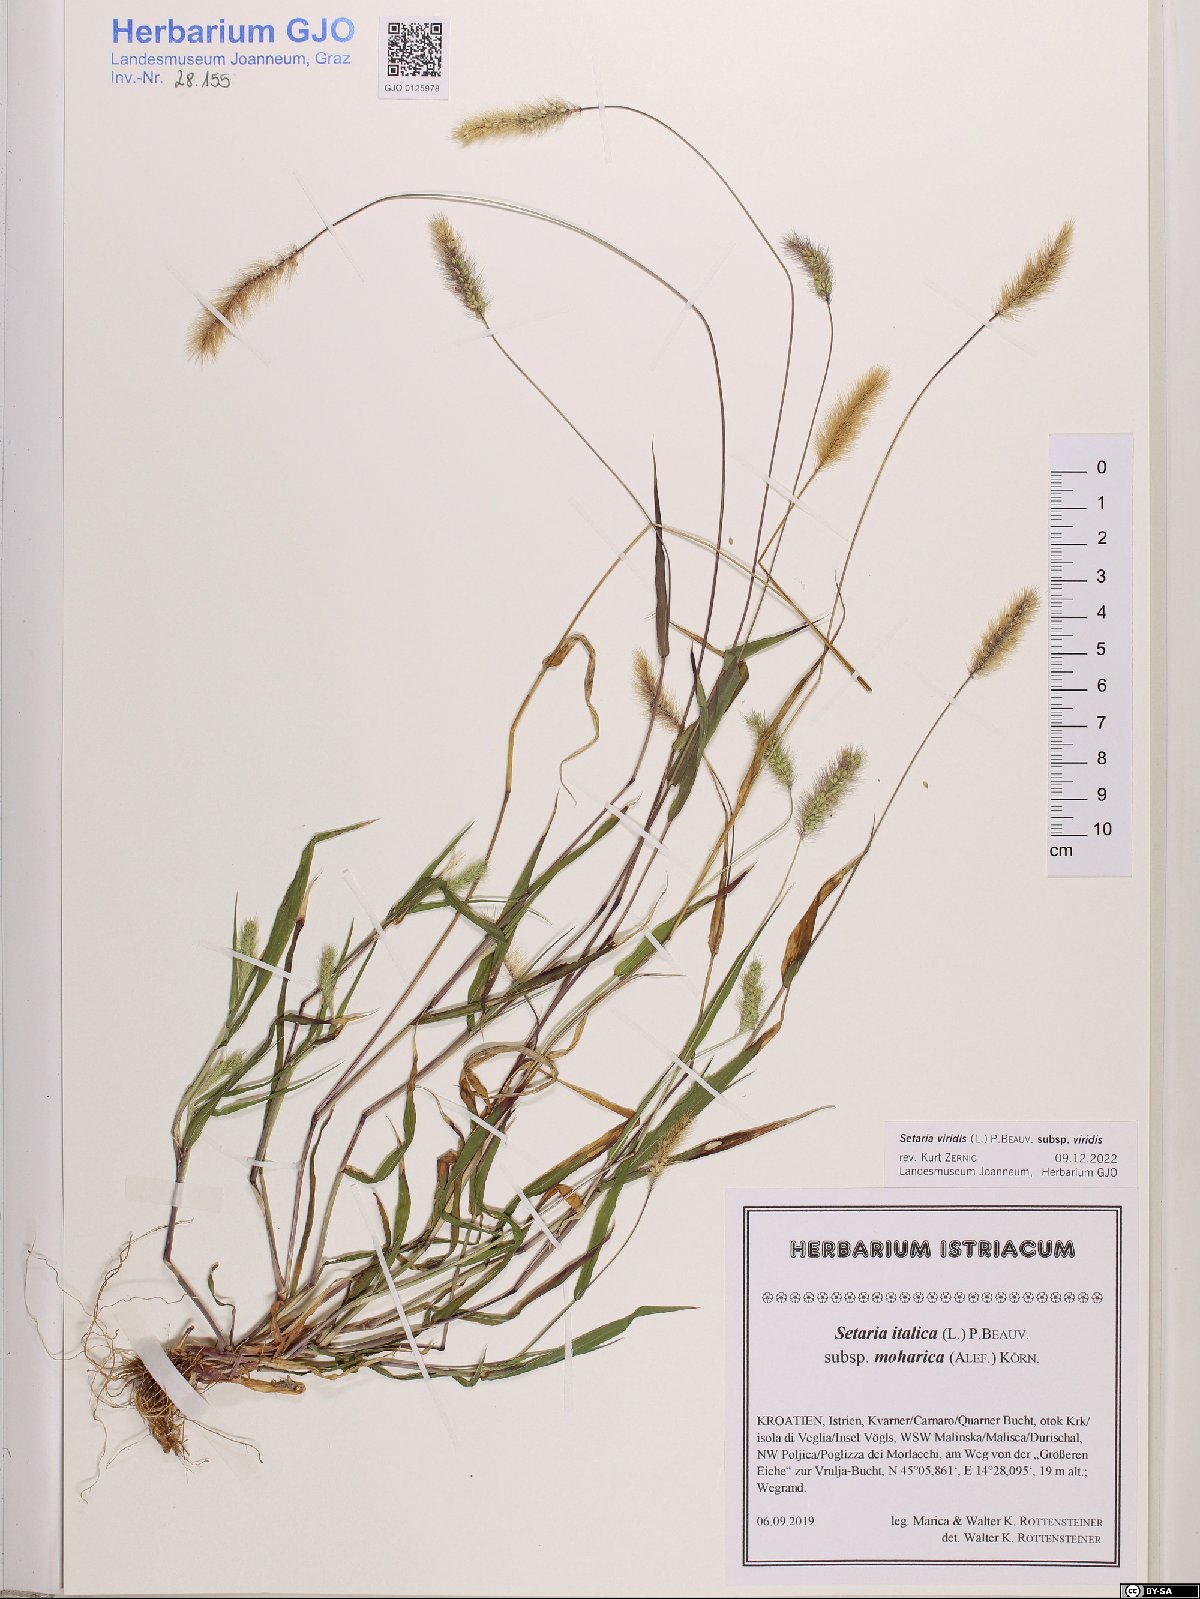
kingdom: Plantae
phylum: Tracheophyta
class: Liliopsida
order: Poales
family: Poaceae
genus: Setaria
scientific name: Setaria viridis
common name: Green bristlegrass
